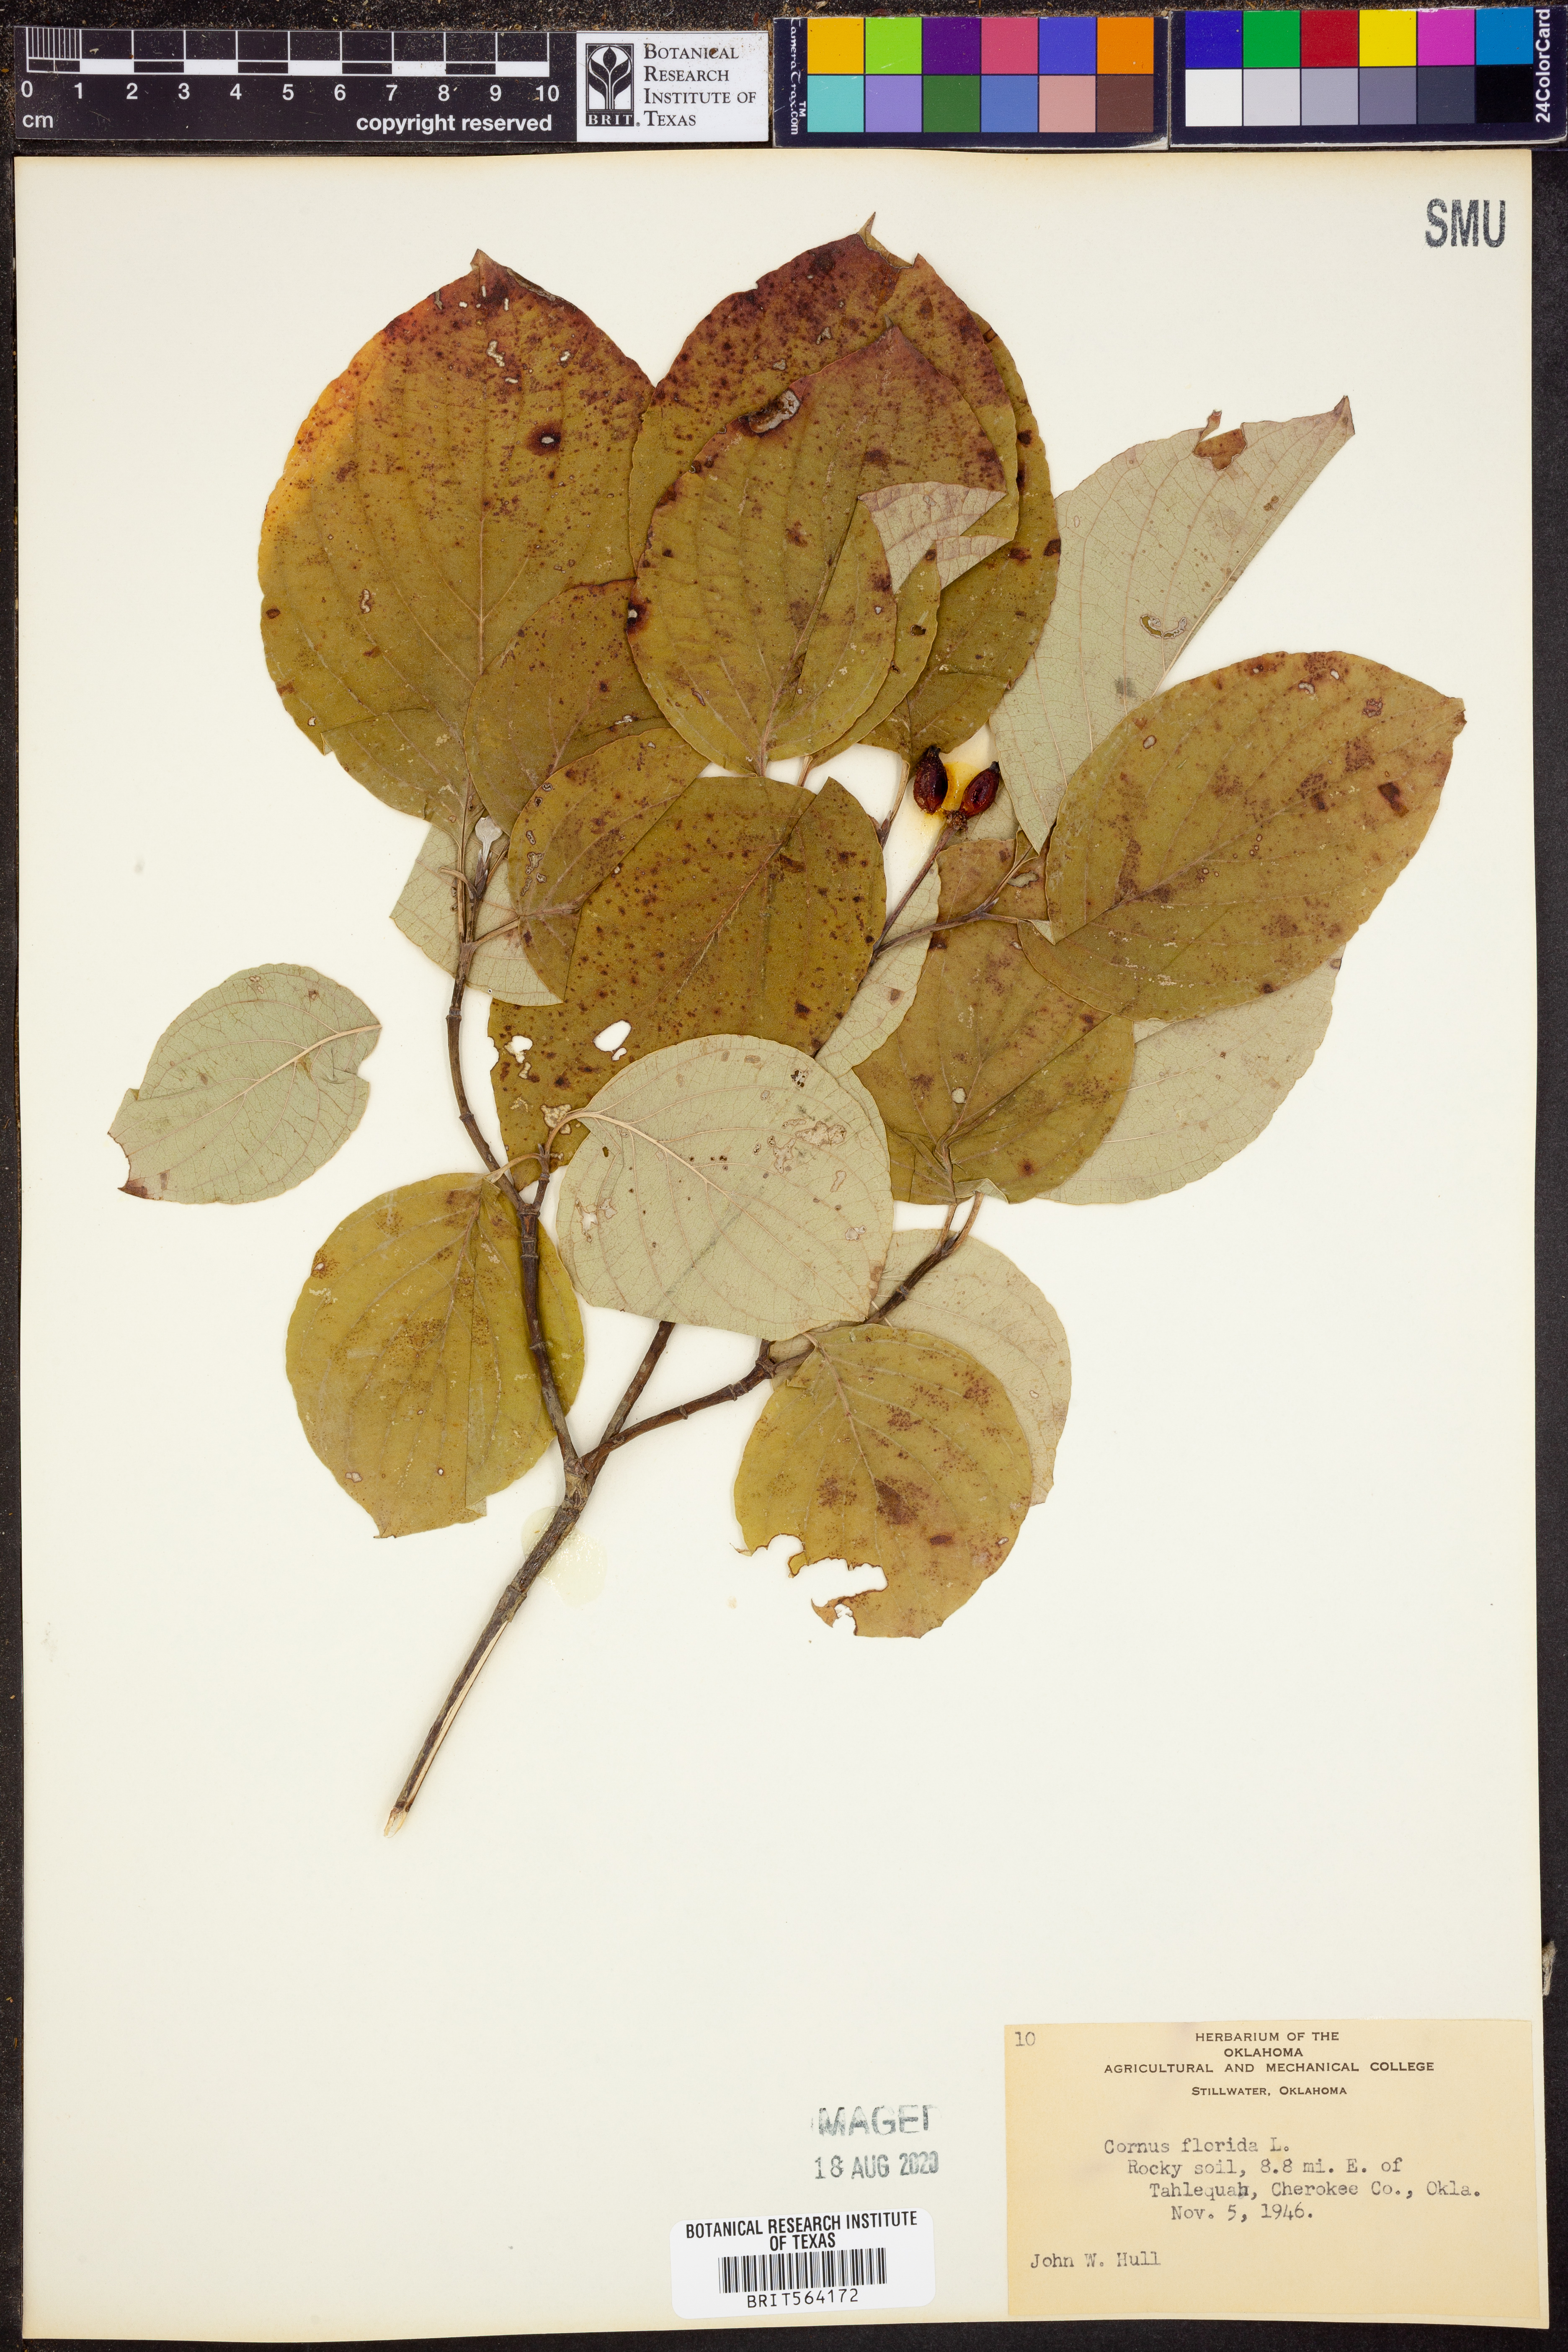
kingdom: Plantae
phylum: Tracheophyta
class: Magnoliopsida
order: Cornales
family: Cornaceae
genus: Cornus
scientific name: Cornus florida
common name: Flowering dogwood
